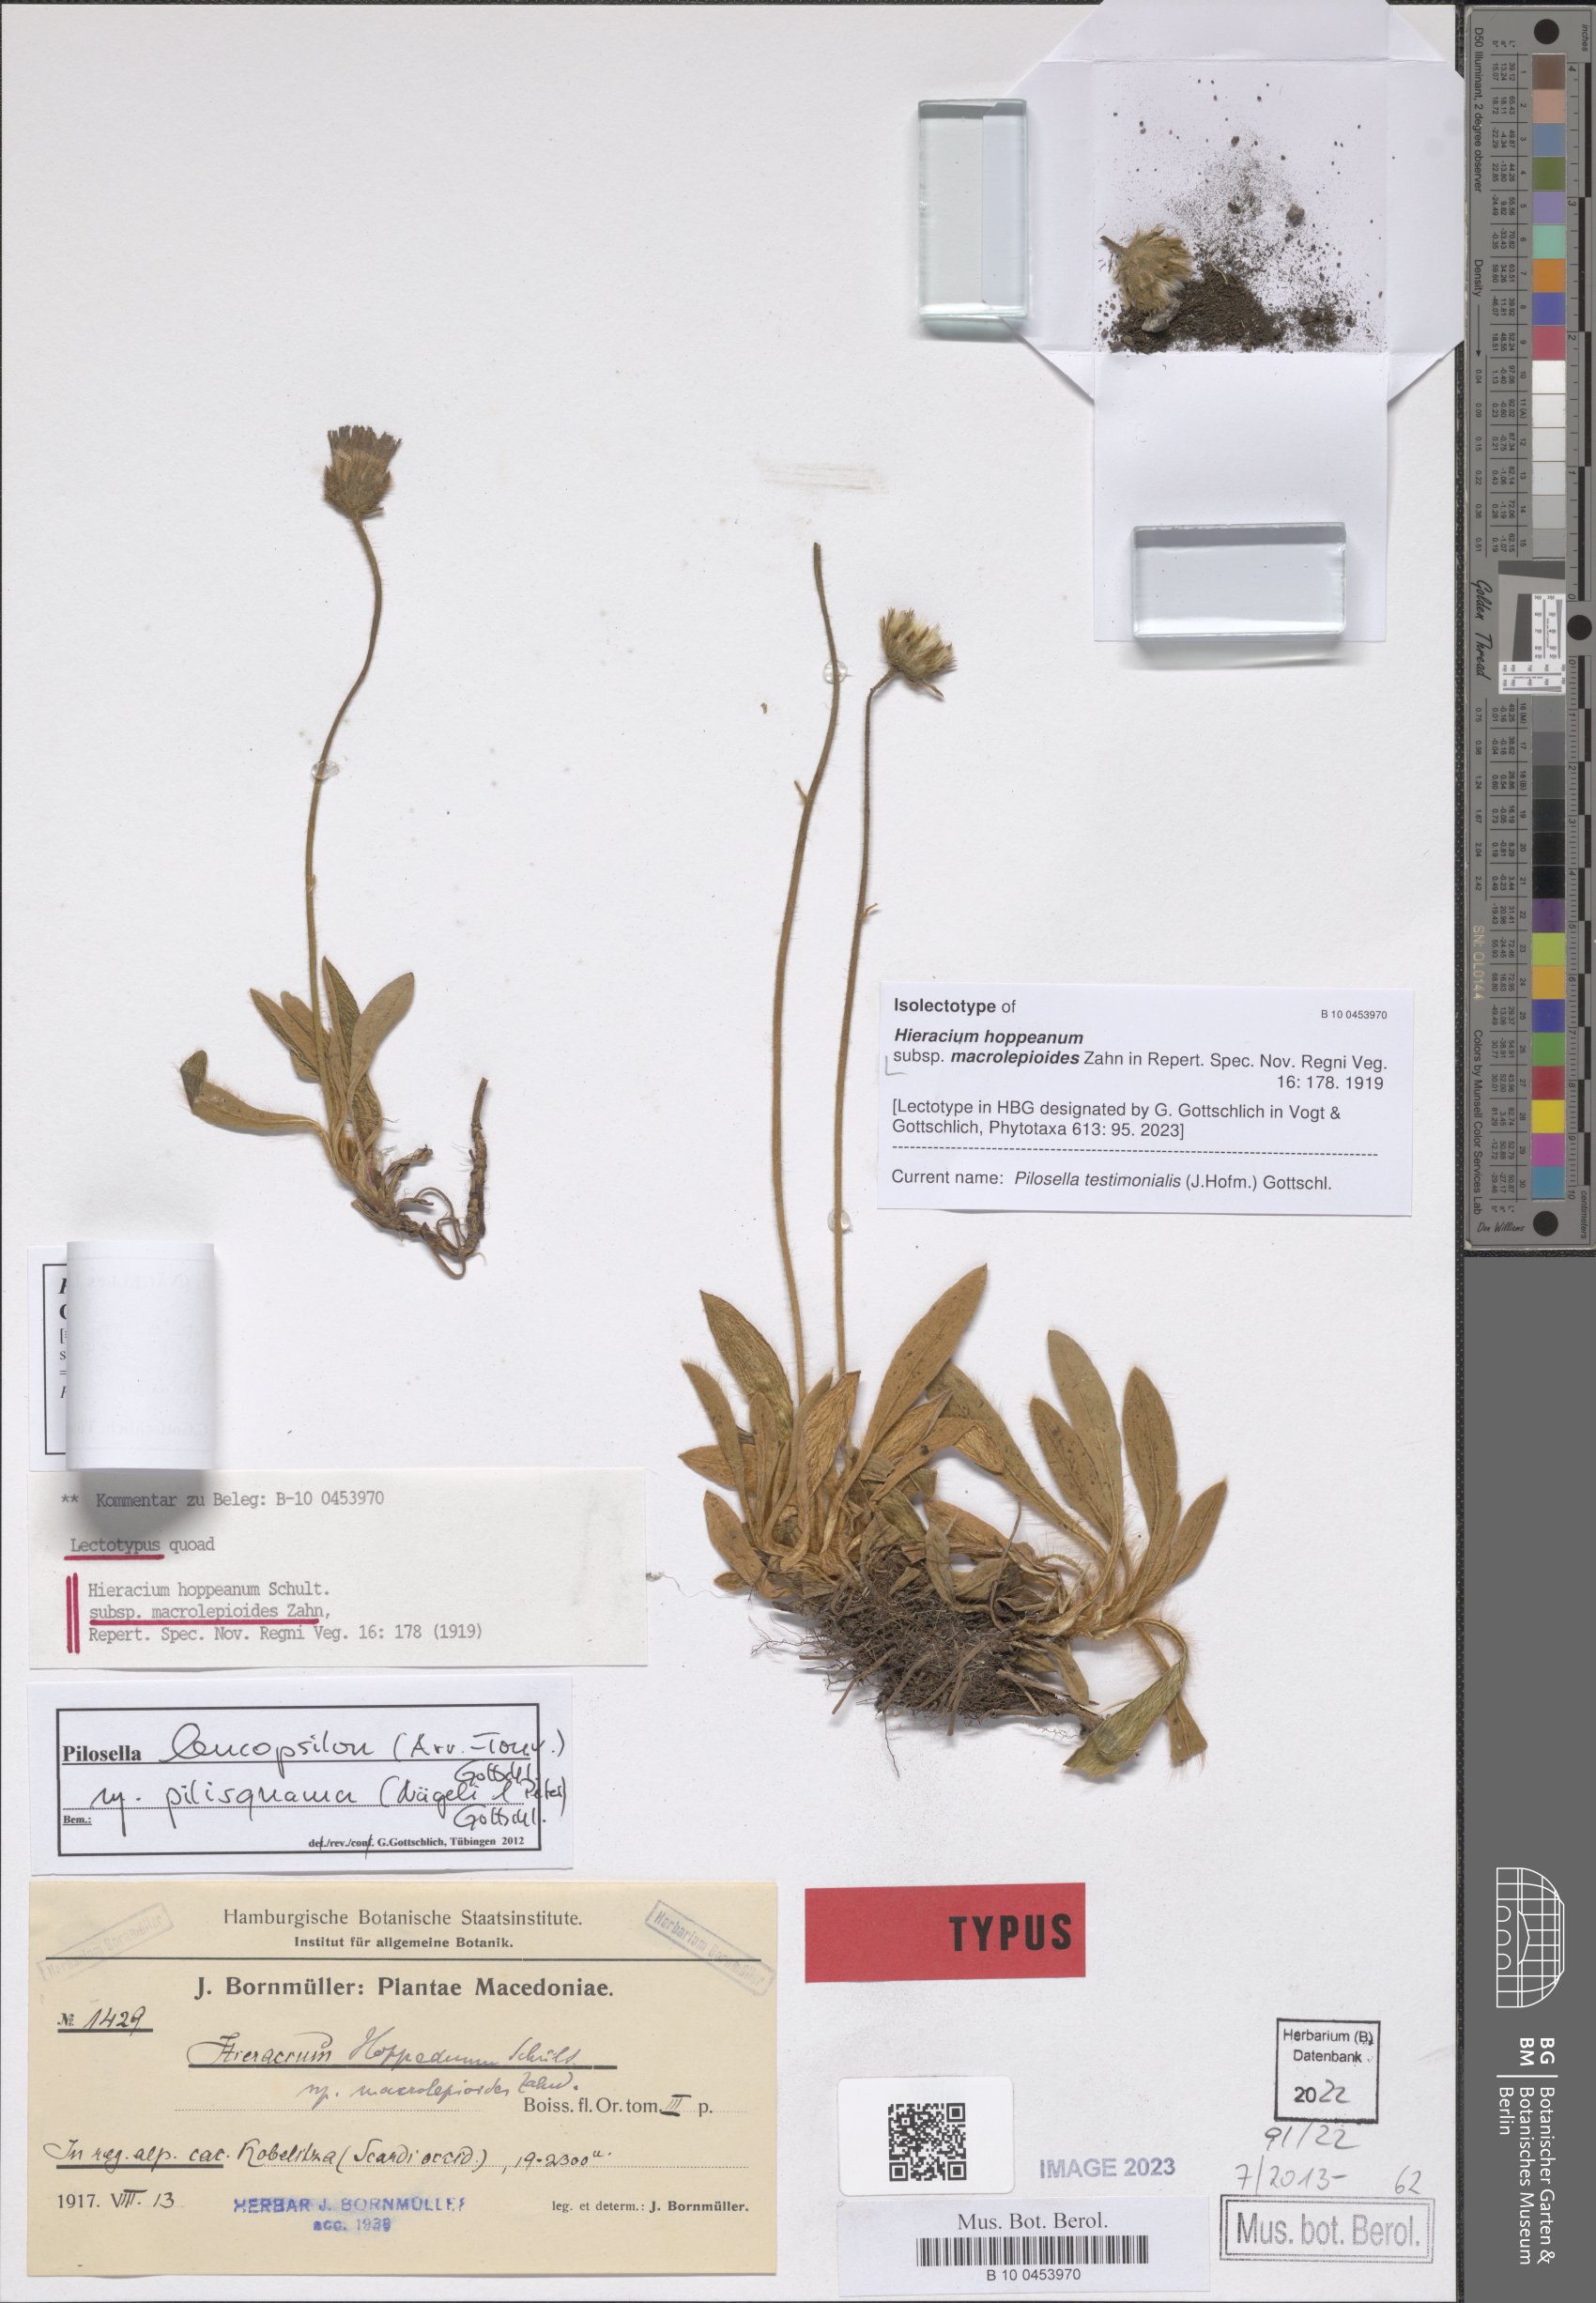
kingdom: Plantae
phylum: Tracheophyta
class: Magnoliopsida
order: Asterales
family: Asteraceae
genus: Pilosella
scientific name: Pilosella leucopsilon
